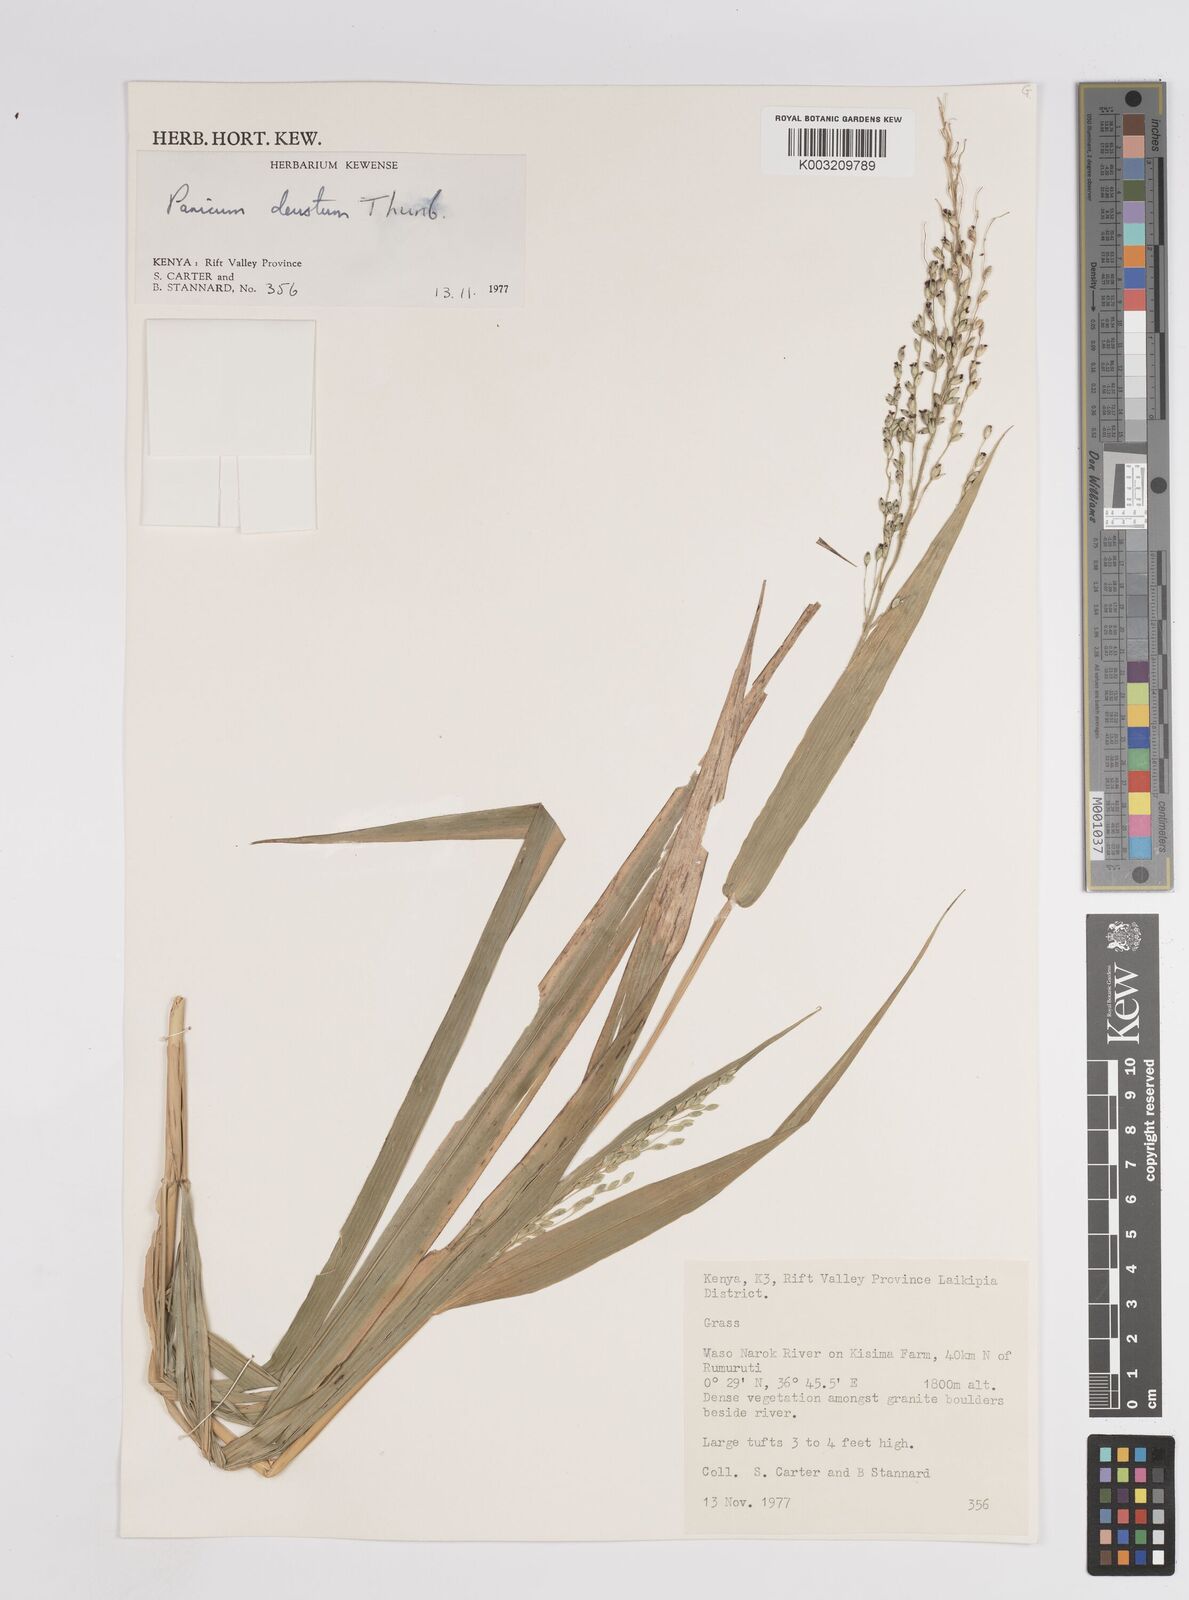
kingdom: Plantae
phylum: Tracheophyta
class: Liliopsida
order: Poales
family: Poaceae
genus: Panicum
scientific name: Panicum deustum
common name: Reed panicum
